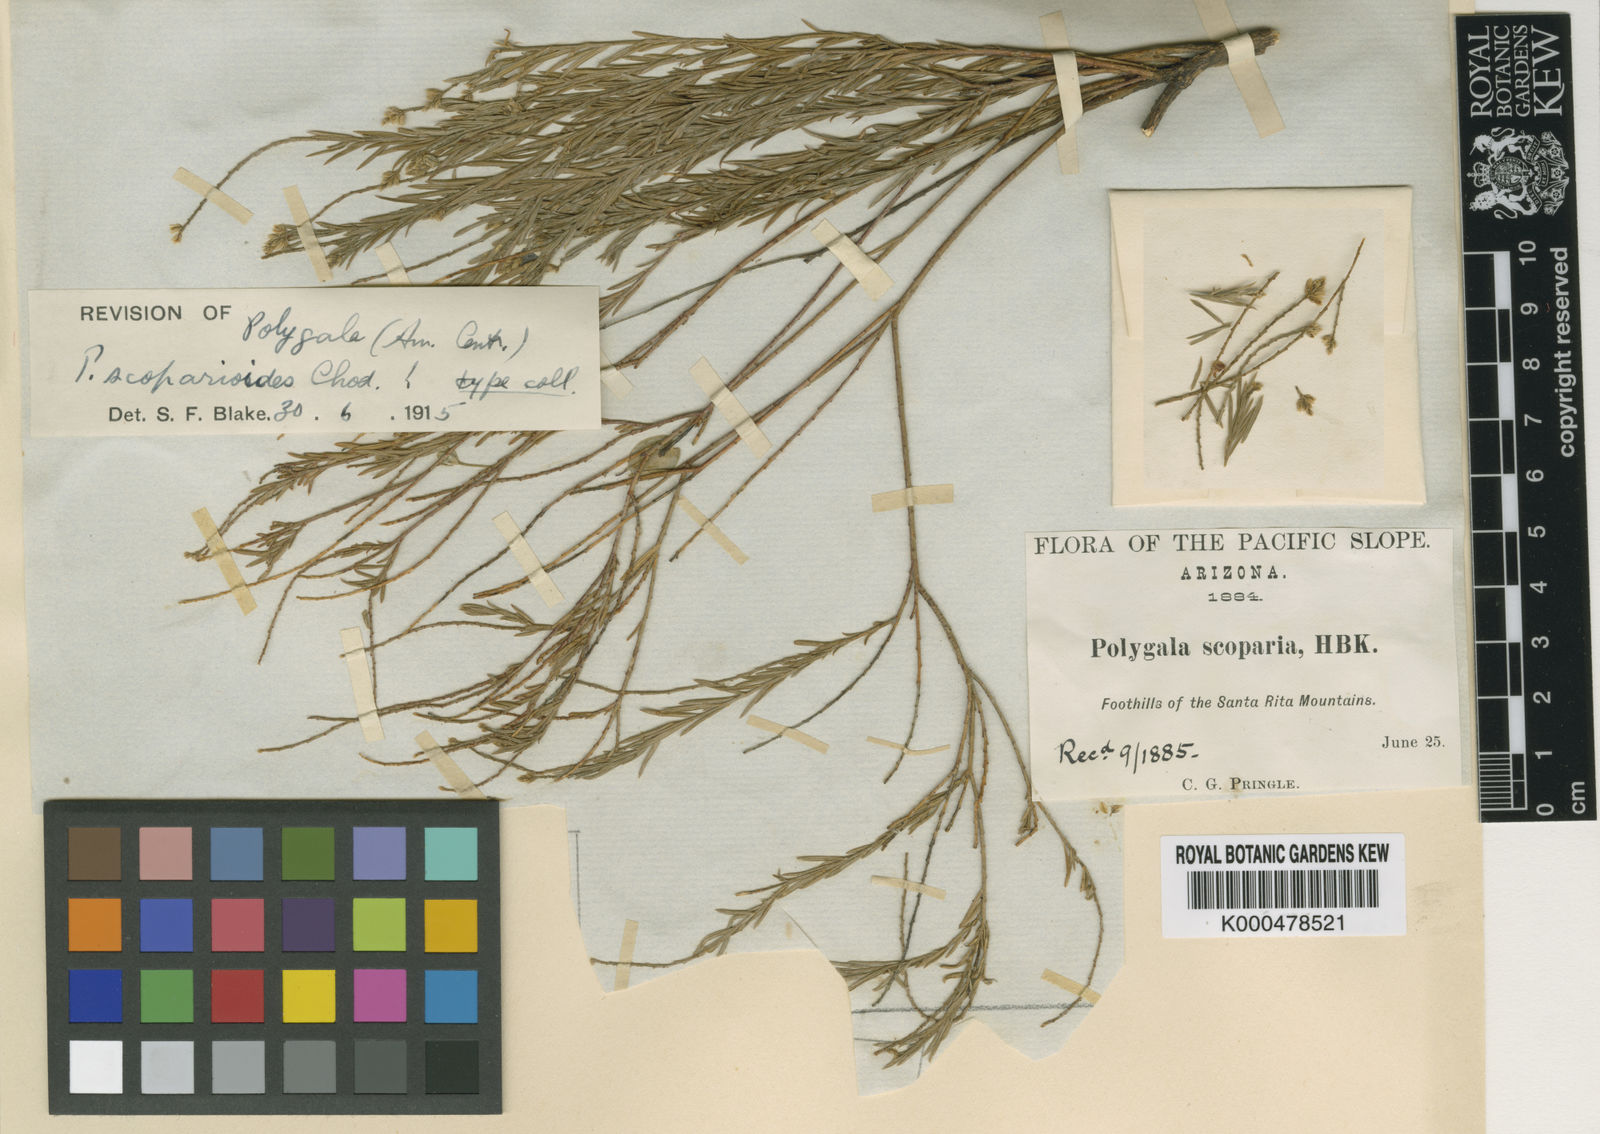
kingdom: Plantae
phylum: Tracheophyta
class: Magnoliopsida
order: Fabales
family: Polygalaceae
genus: Polygala
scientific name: Polygala scoparioides
